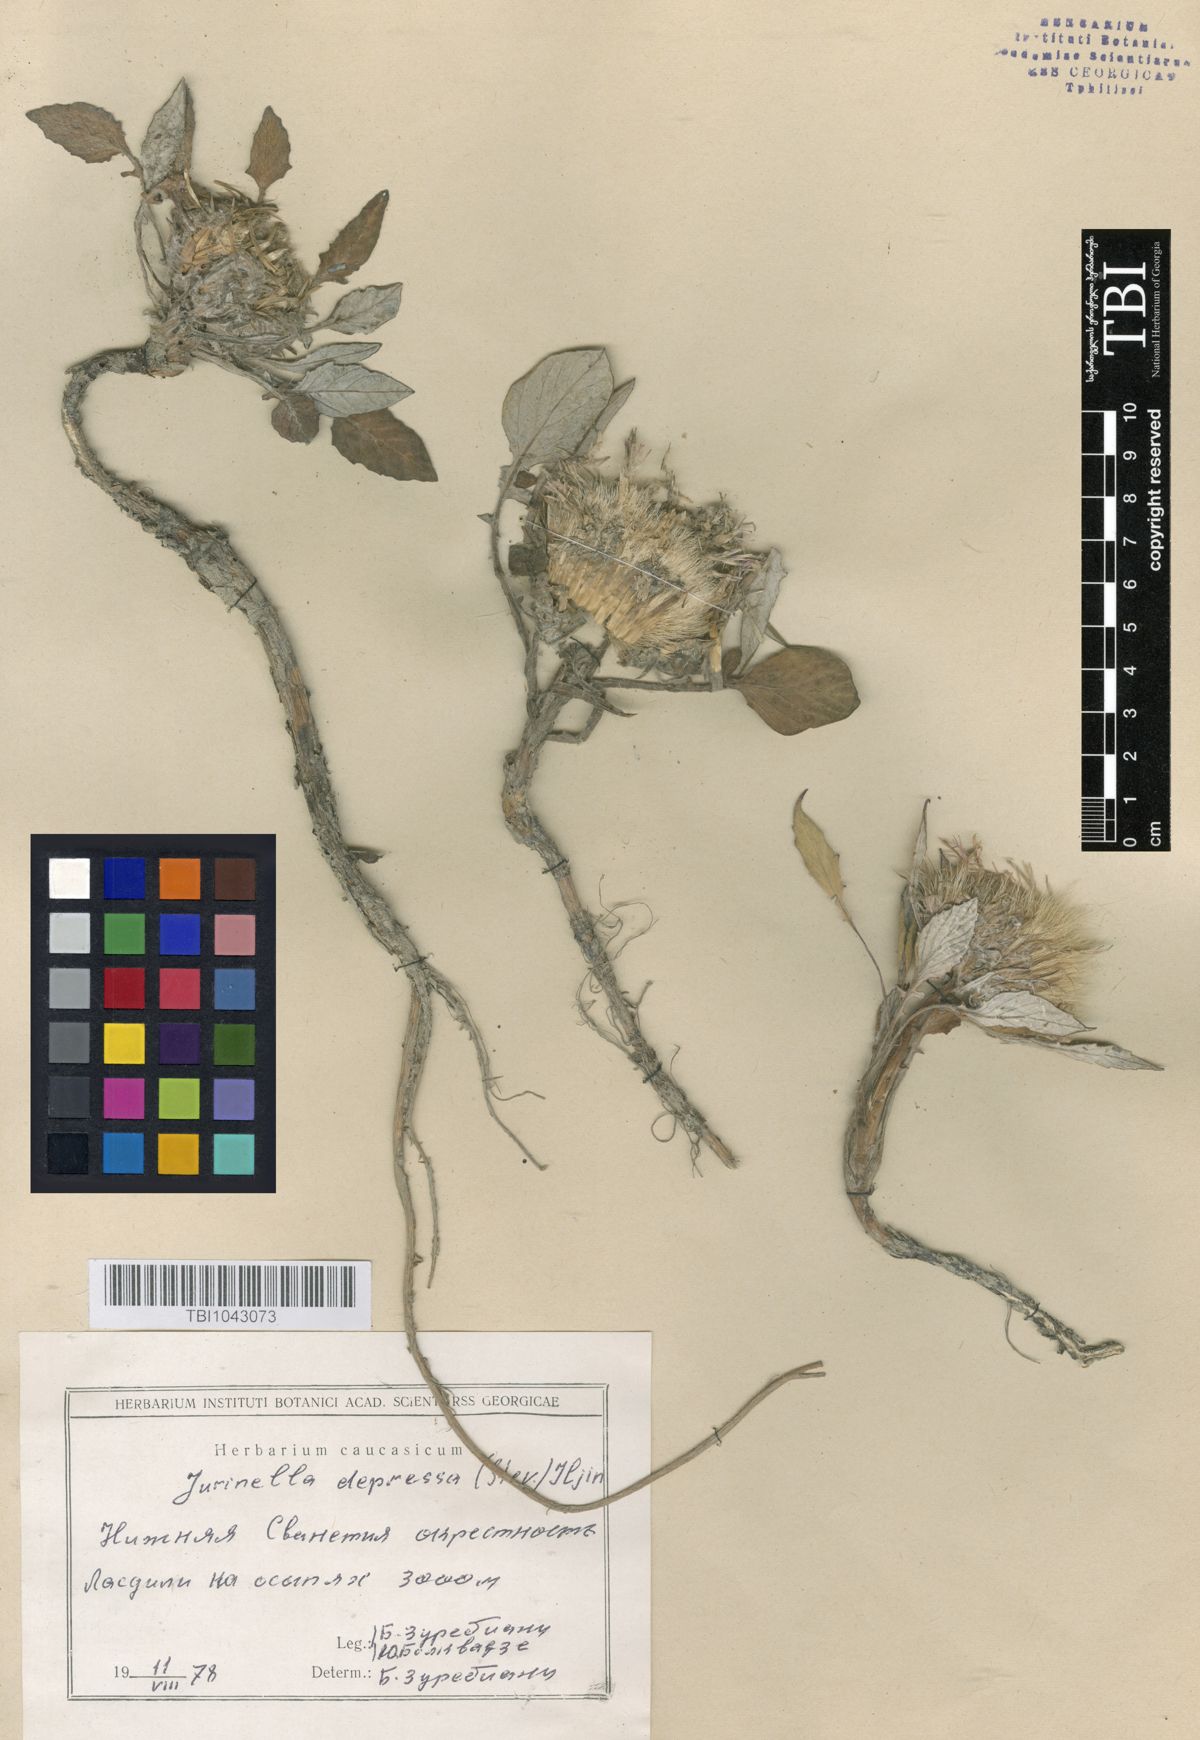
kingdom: Plantae
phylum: Tracheophyta
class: Magnoliopsida
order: Asterales
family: Asteraceae
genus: Jurinea
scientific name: Jurinea moschus
